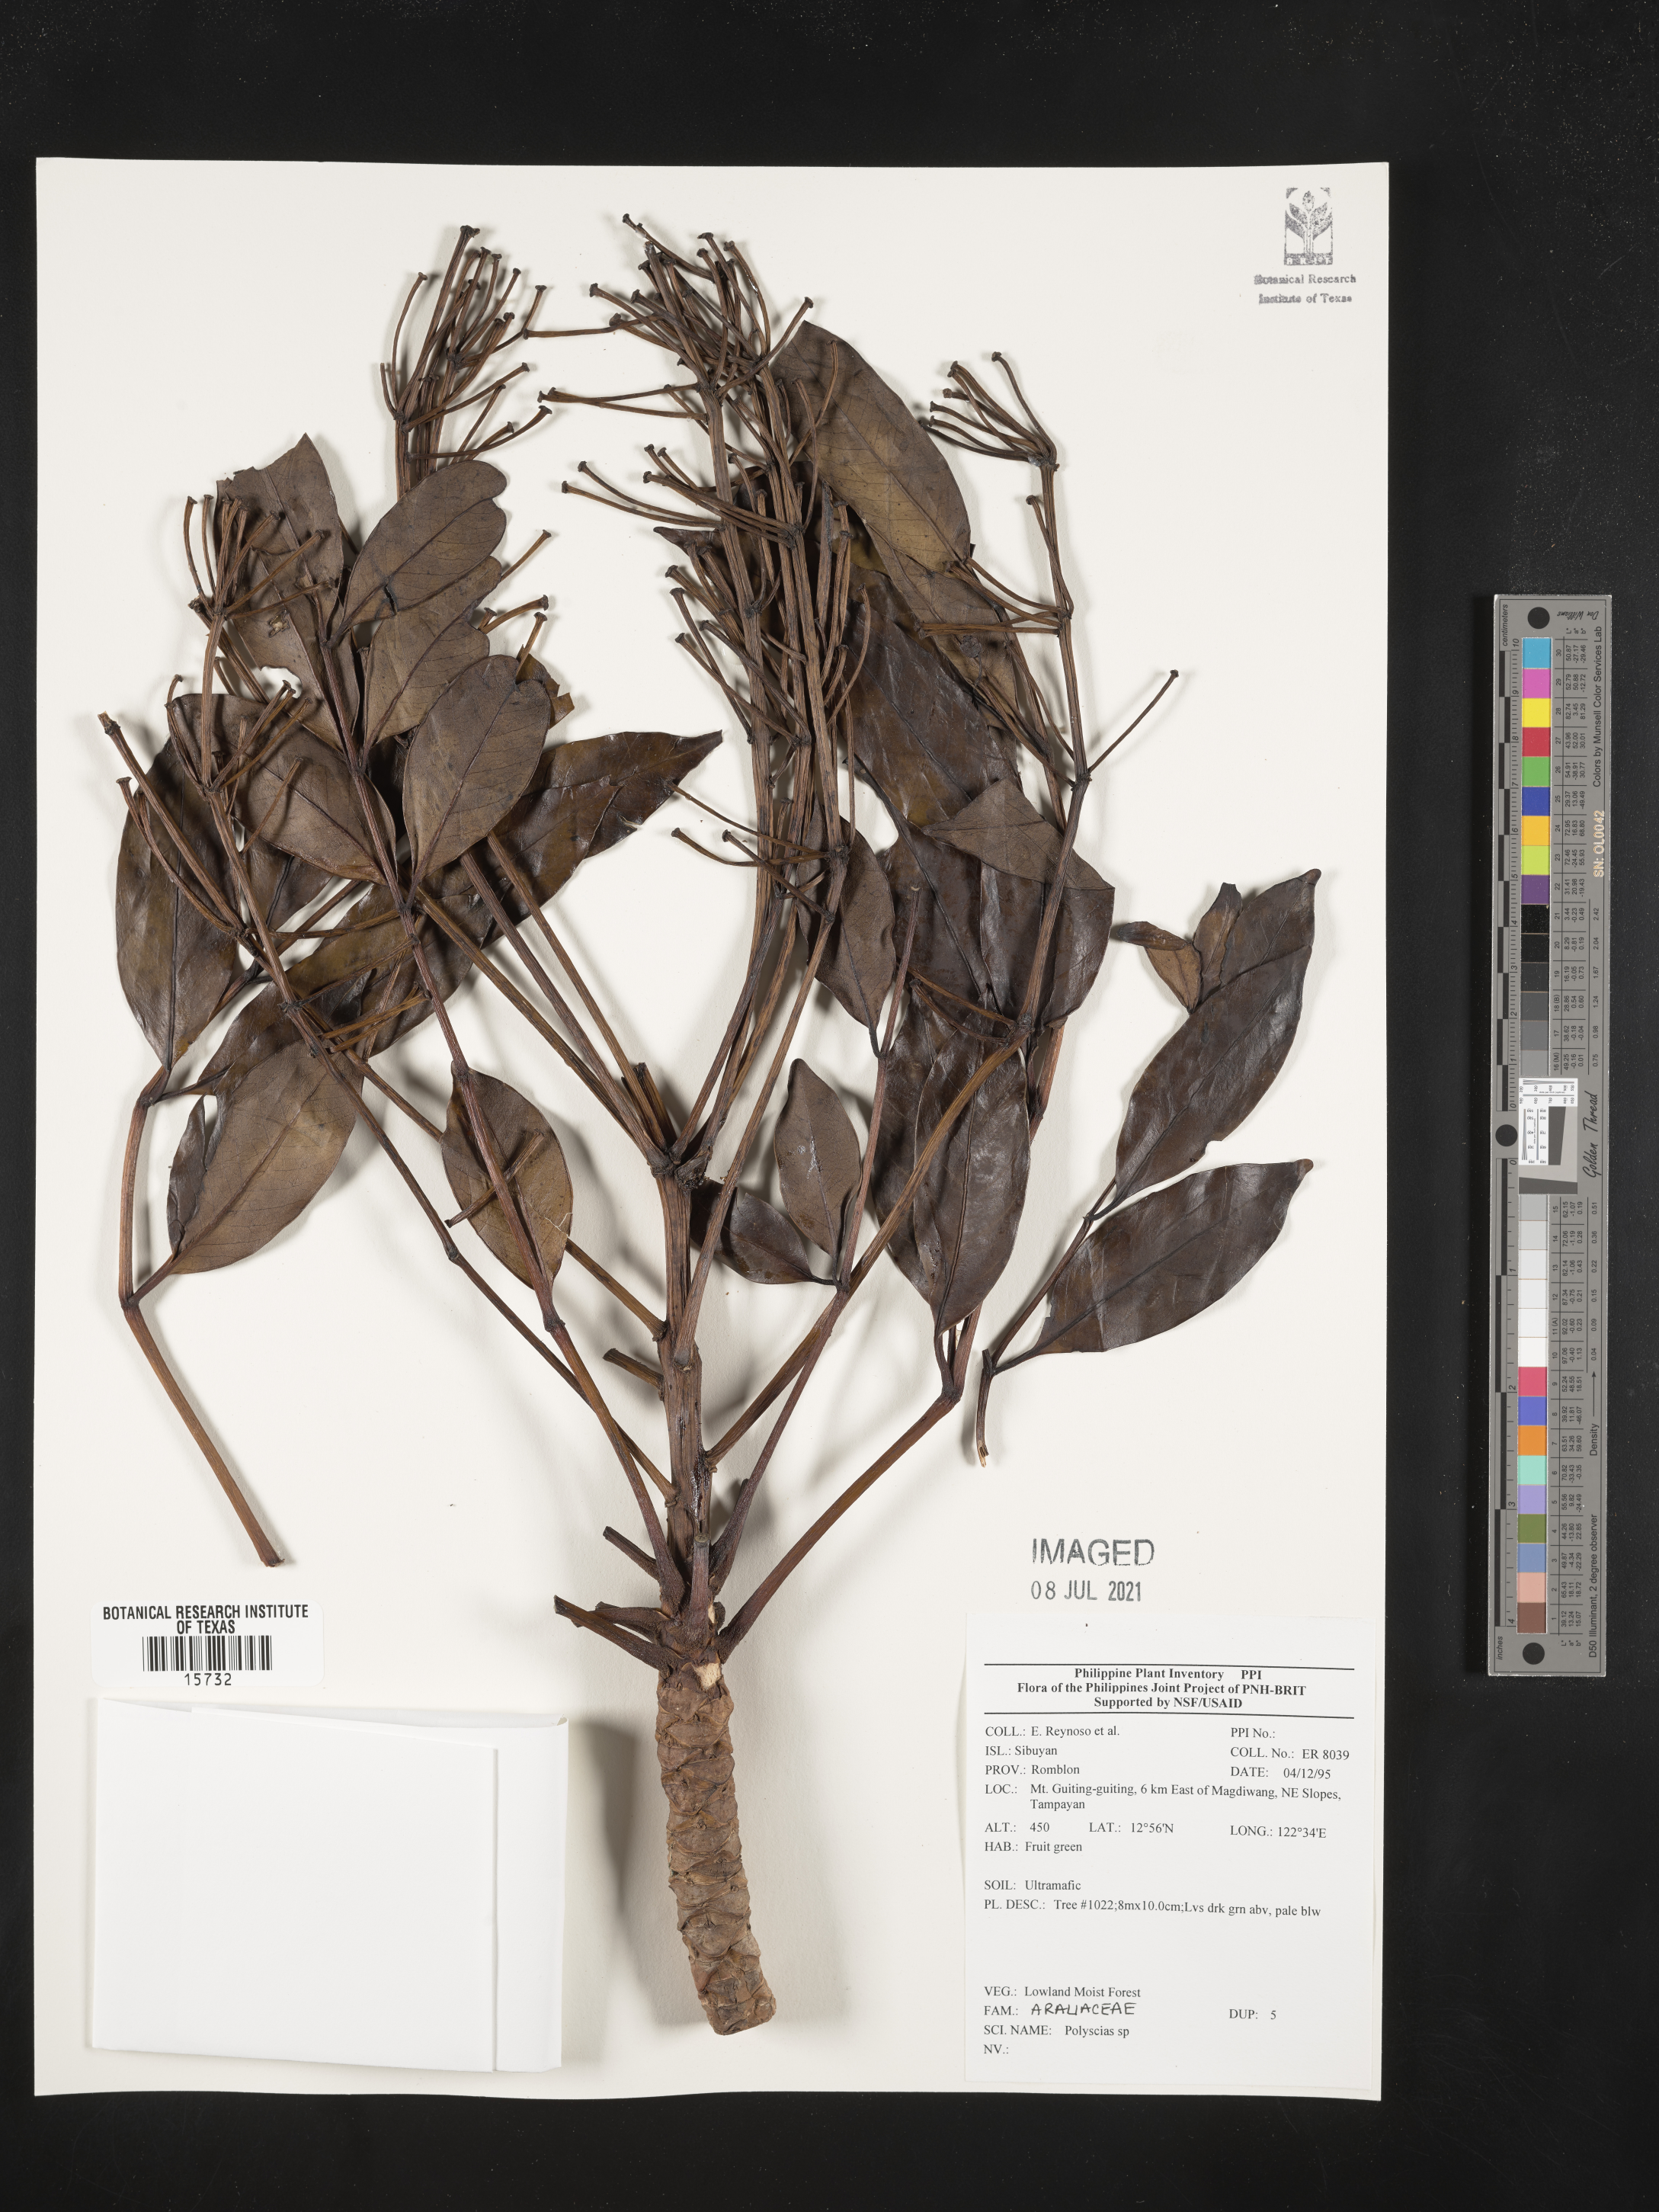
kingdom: Plantae
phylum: Tracheophyta
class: Magnoliopsida
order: Apiales
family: Araliaceae
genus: Polyscias
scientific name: Polyscias
